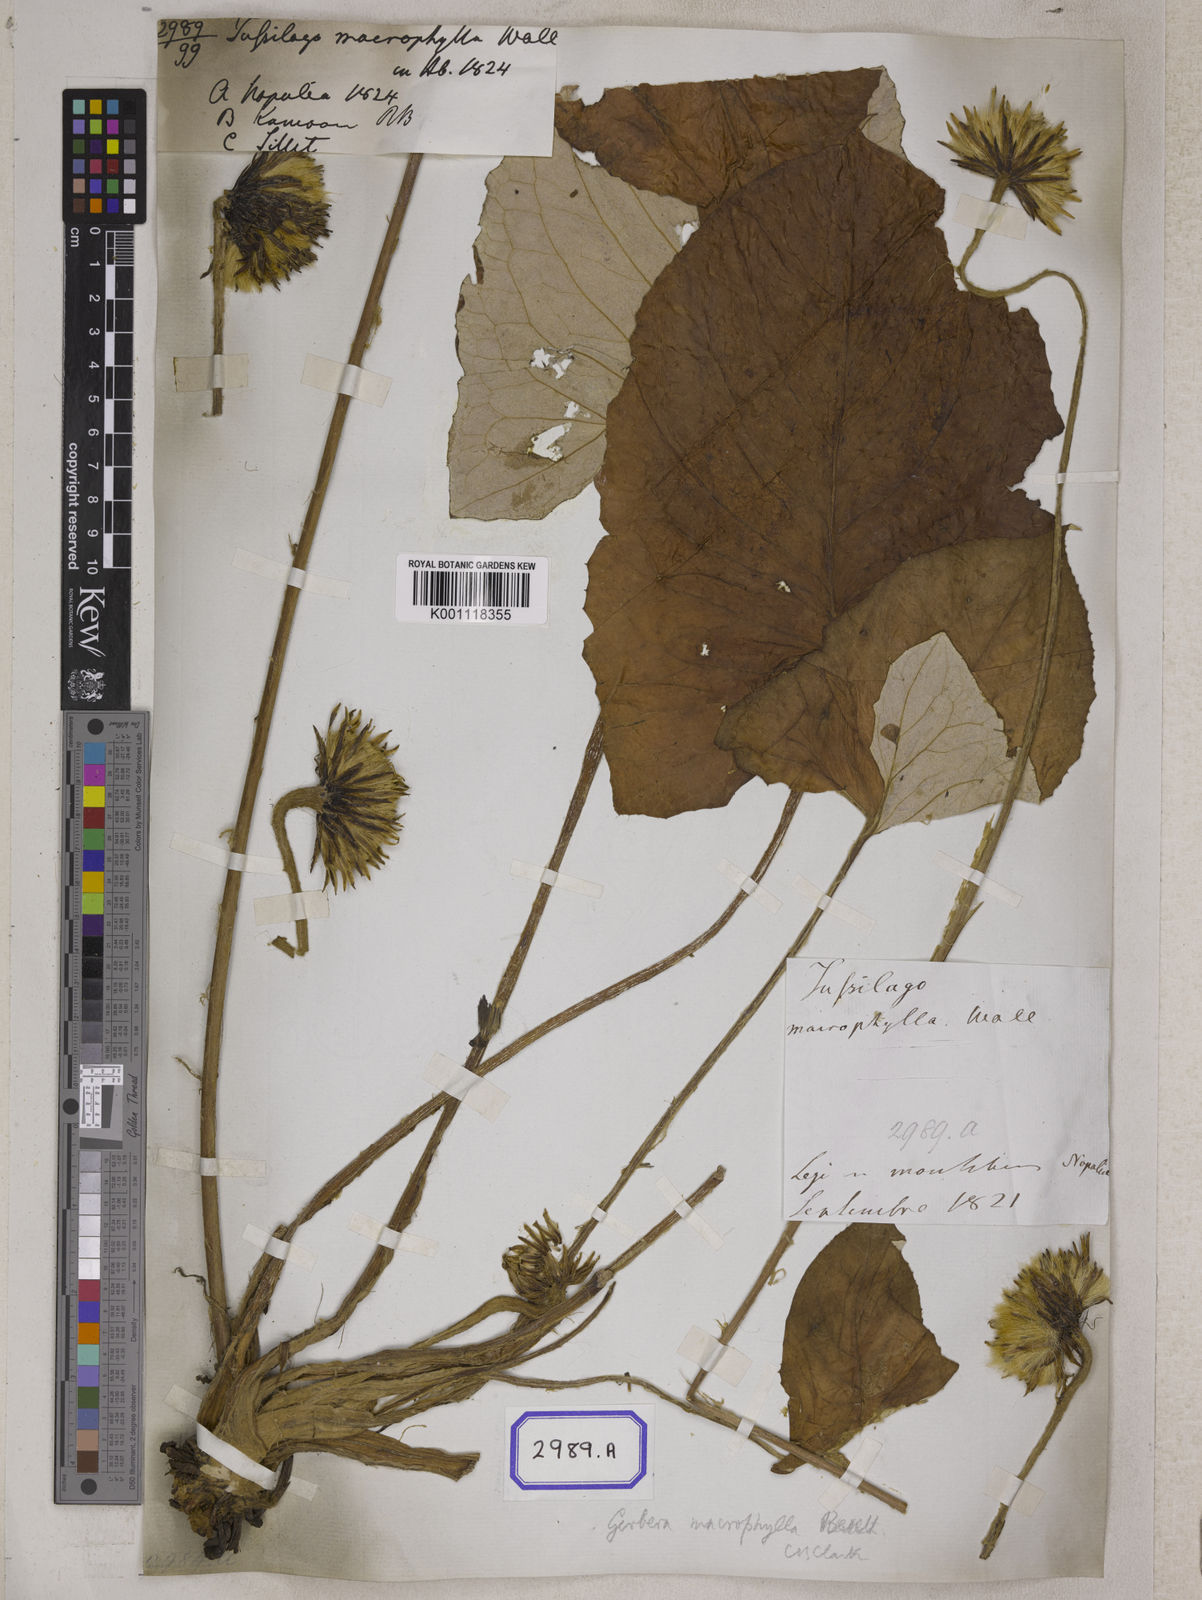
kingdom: Plantae
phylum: Tracheophyta
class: Magnoliopsida
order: Asterales
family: Asteraceae
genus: Oreoseris
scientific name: Oreoseris maxima
